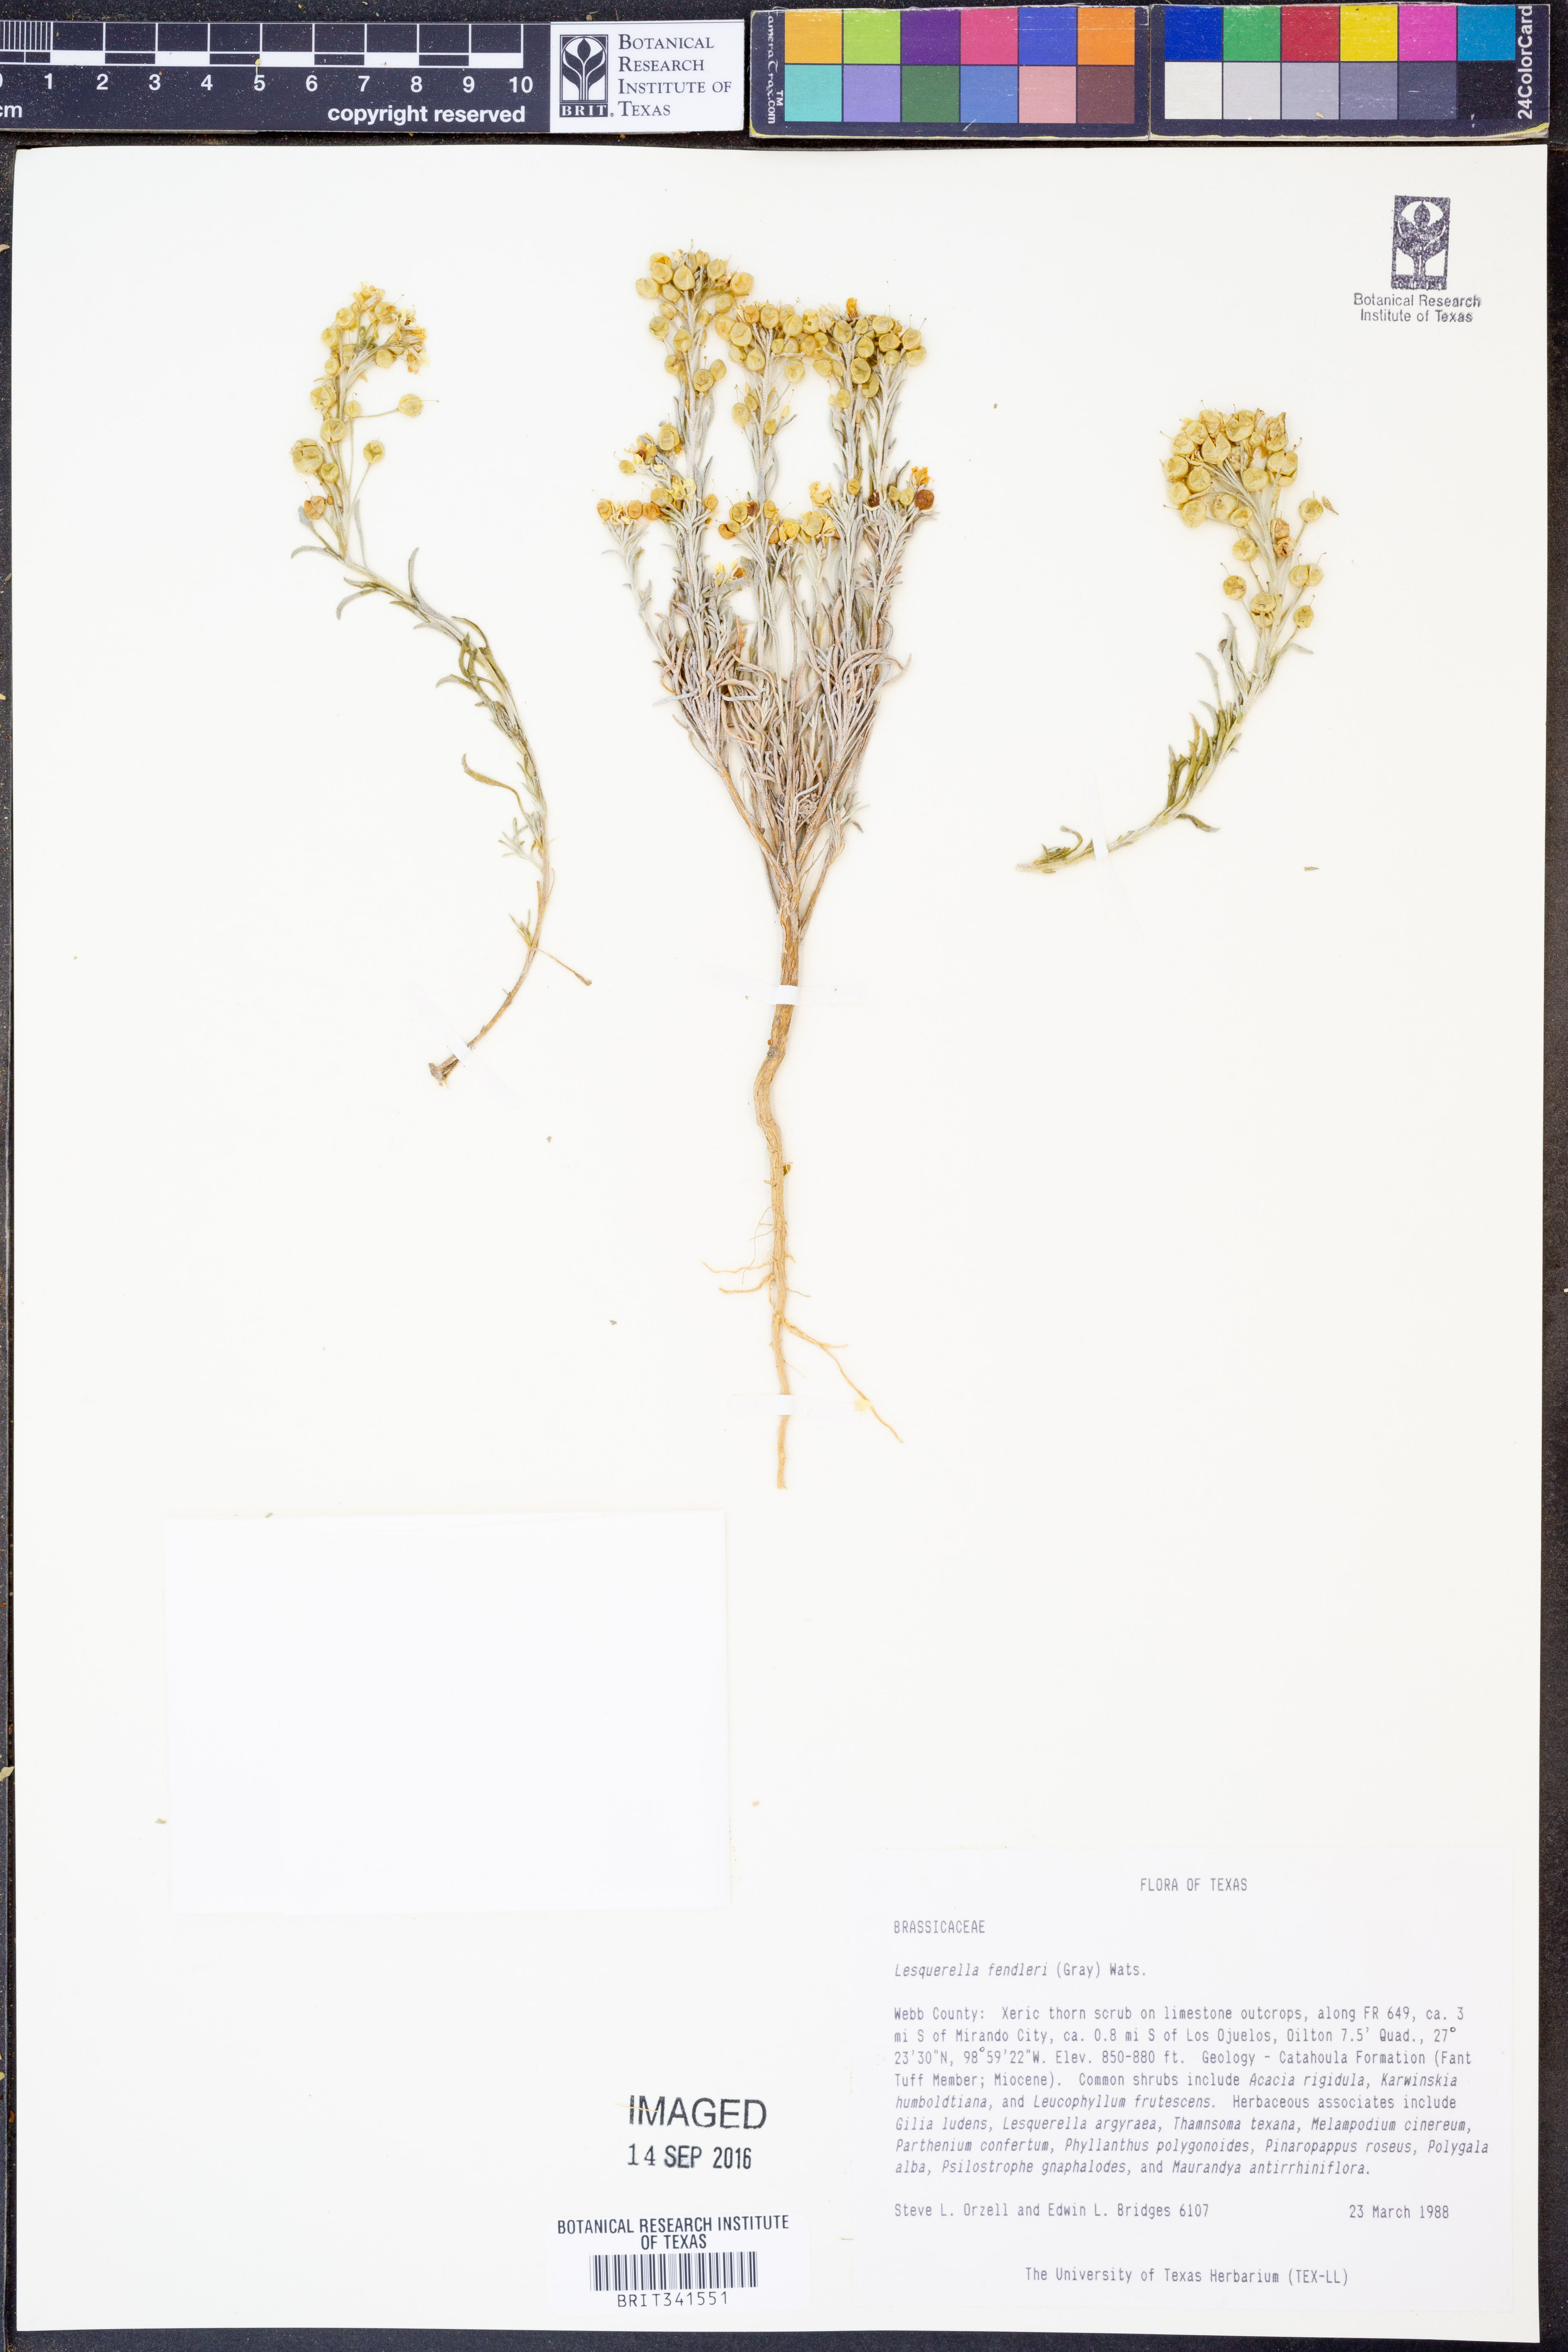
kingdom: Plantae
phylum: Tracheophyta
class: Magnoliopsida
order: Brassicales
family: Brassicaceae
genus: Physaria
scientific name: Physaria fendleri
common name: Fendler's bladderpod
